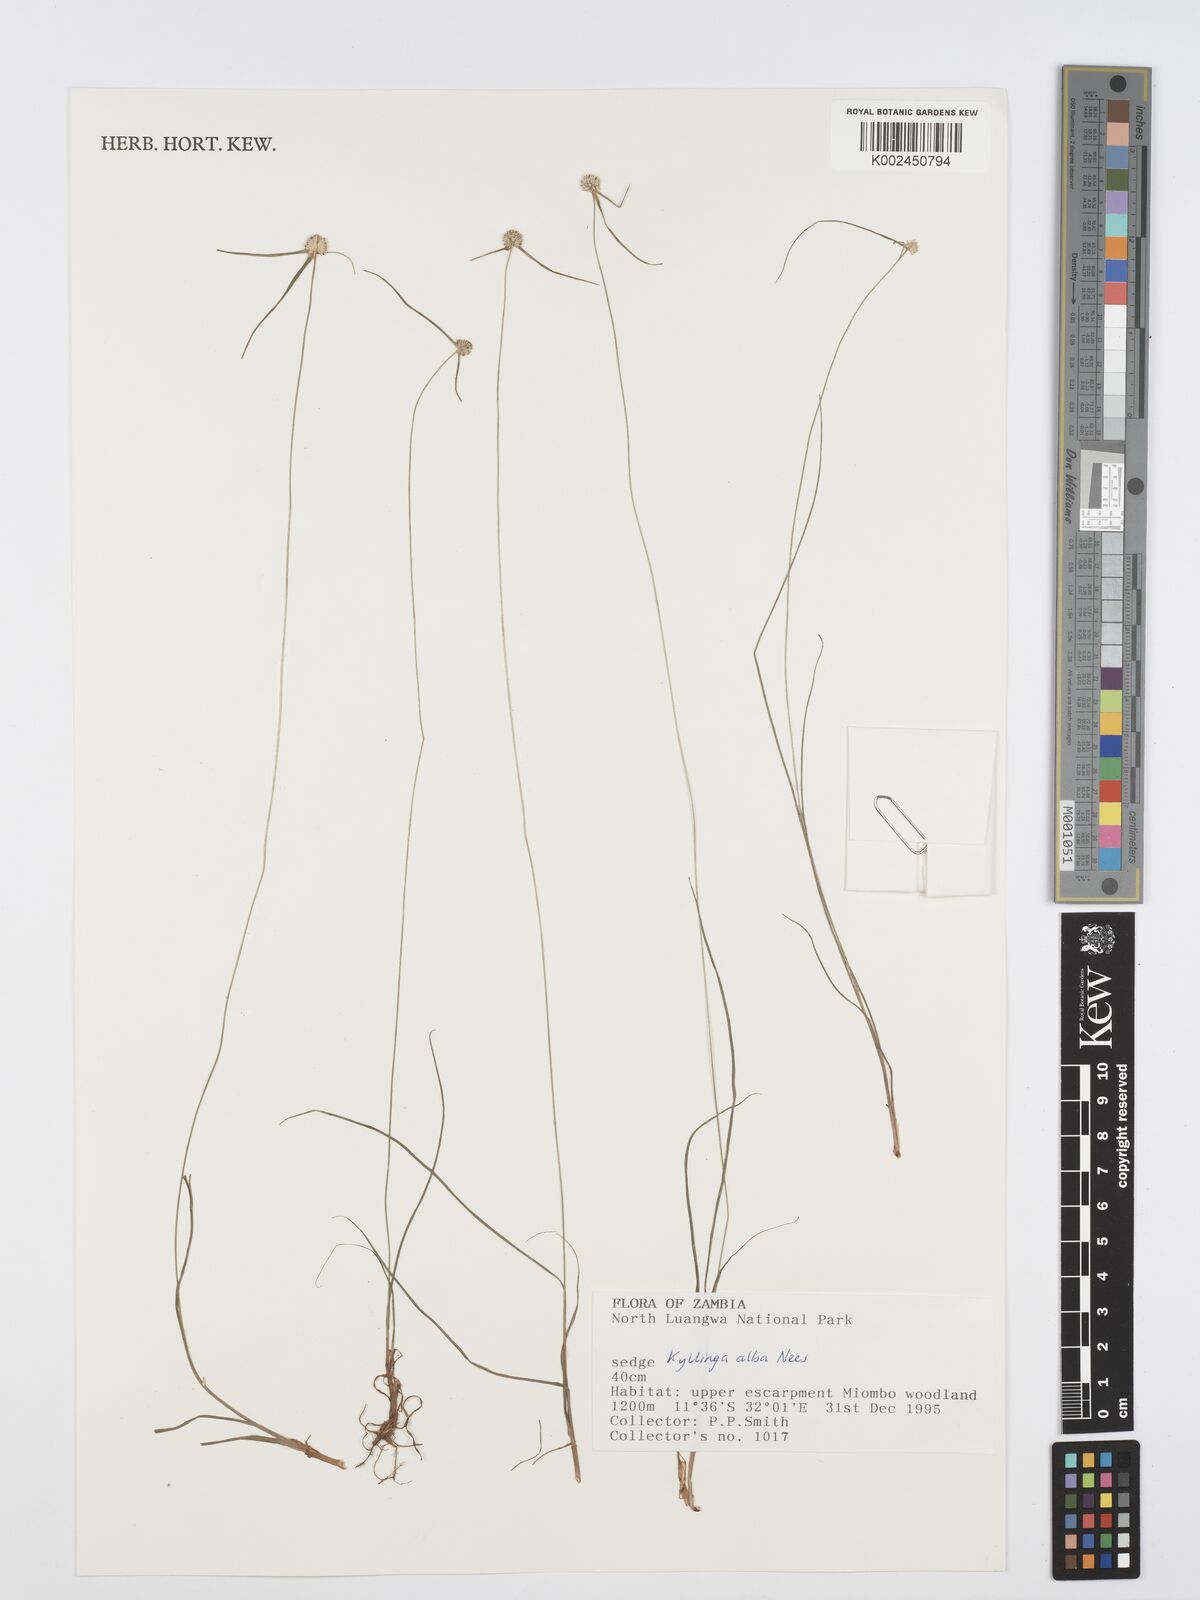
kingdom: Plantae
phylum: Tracheophyta
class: Liliopsida
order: Poales
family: Cyperaceae
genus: Cyperus
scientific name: Cyperus
